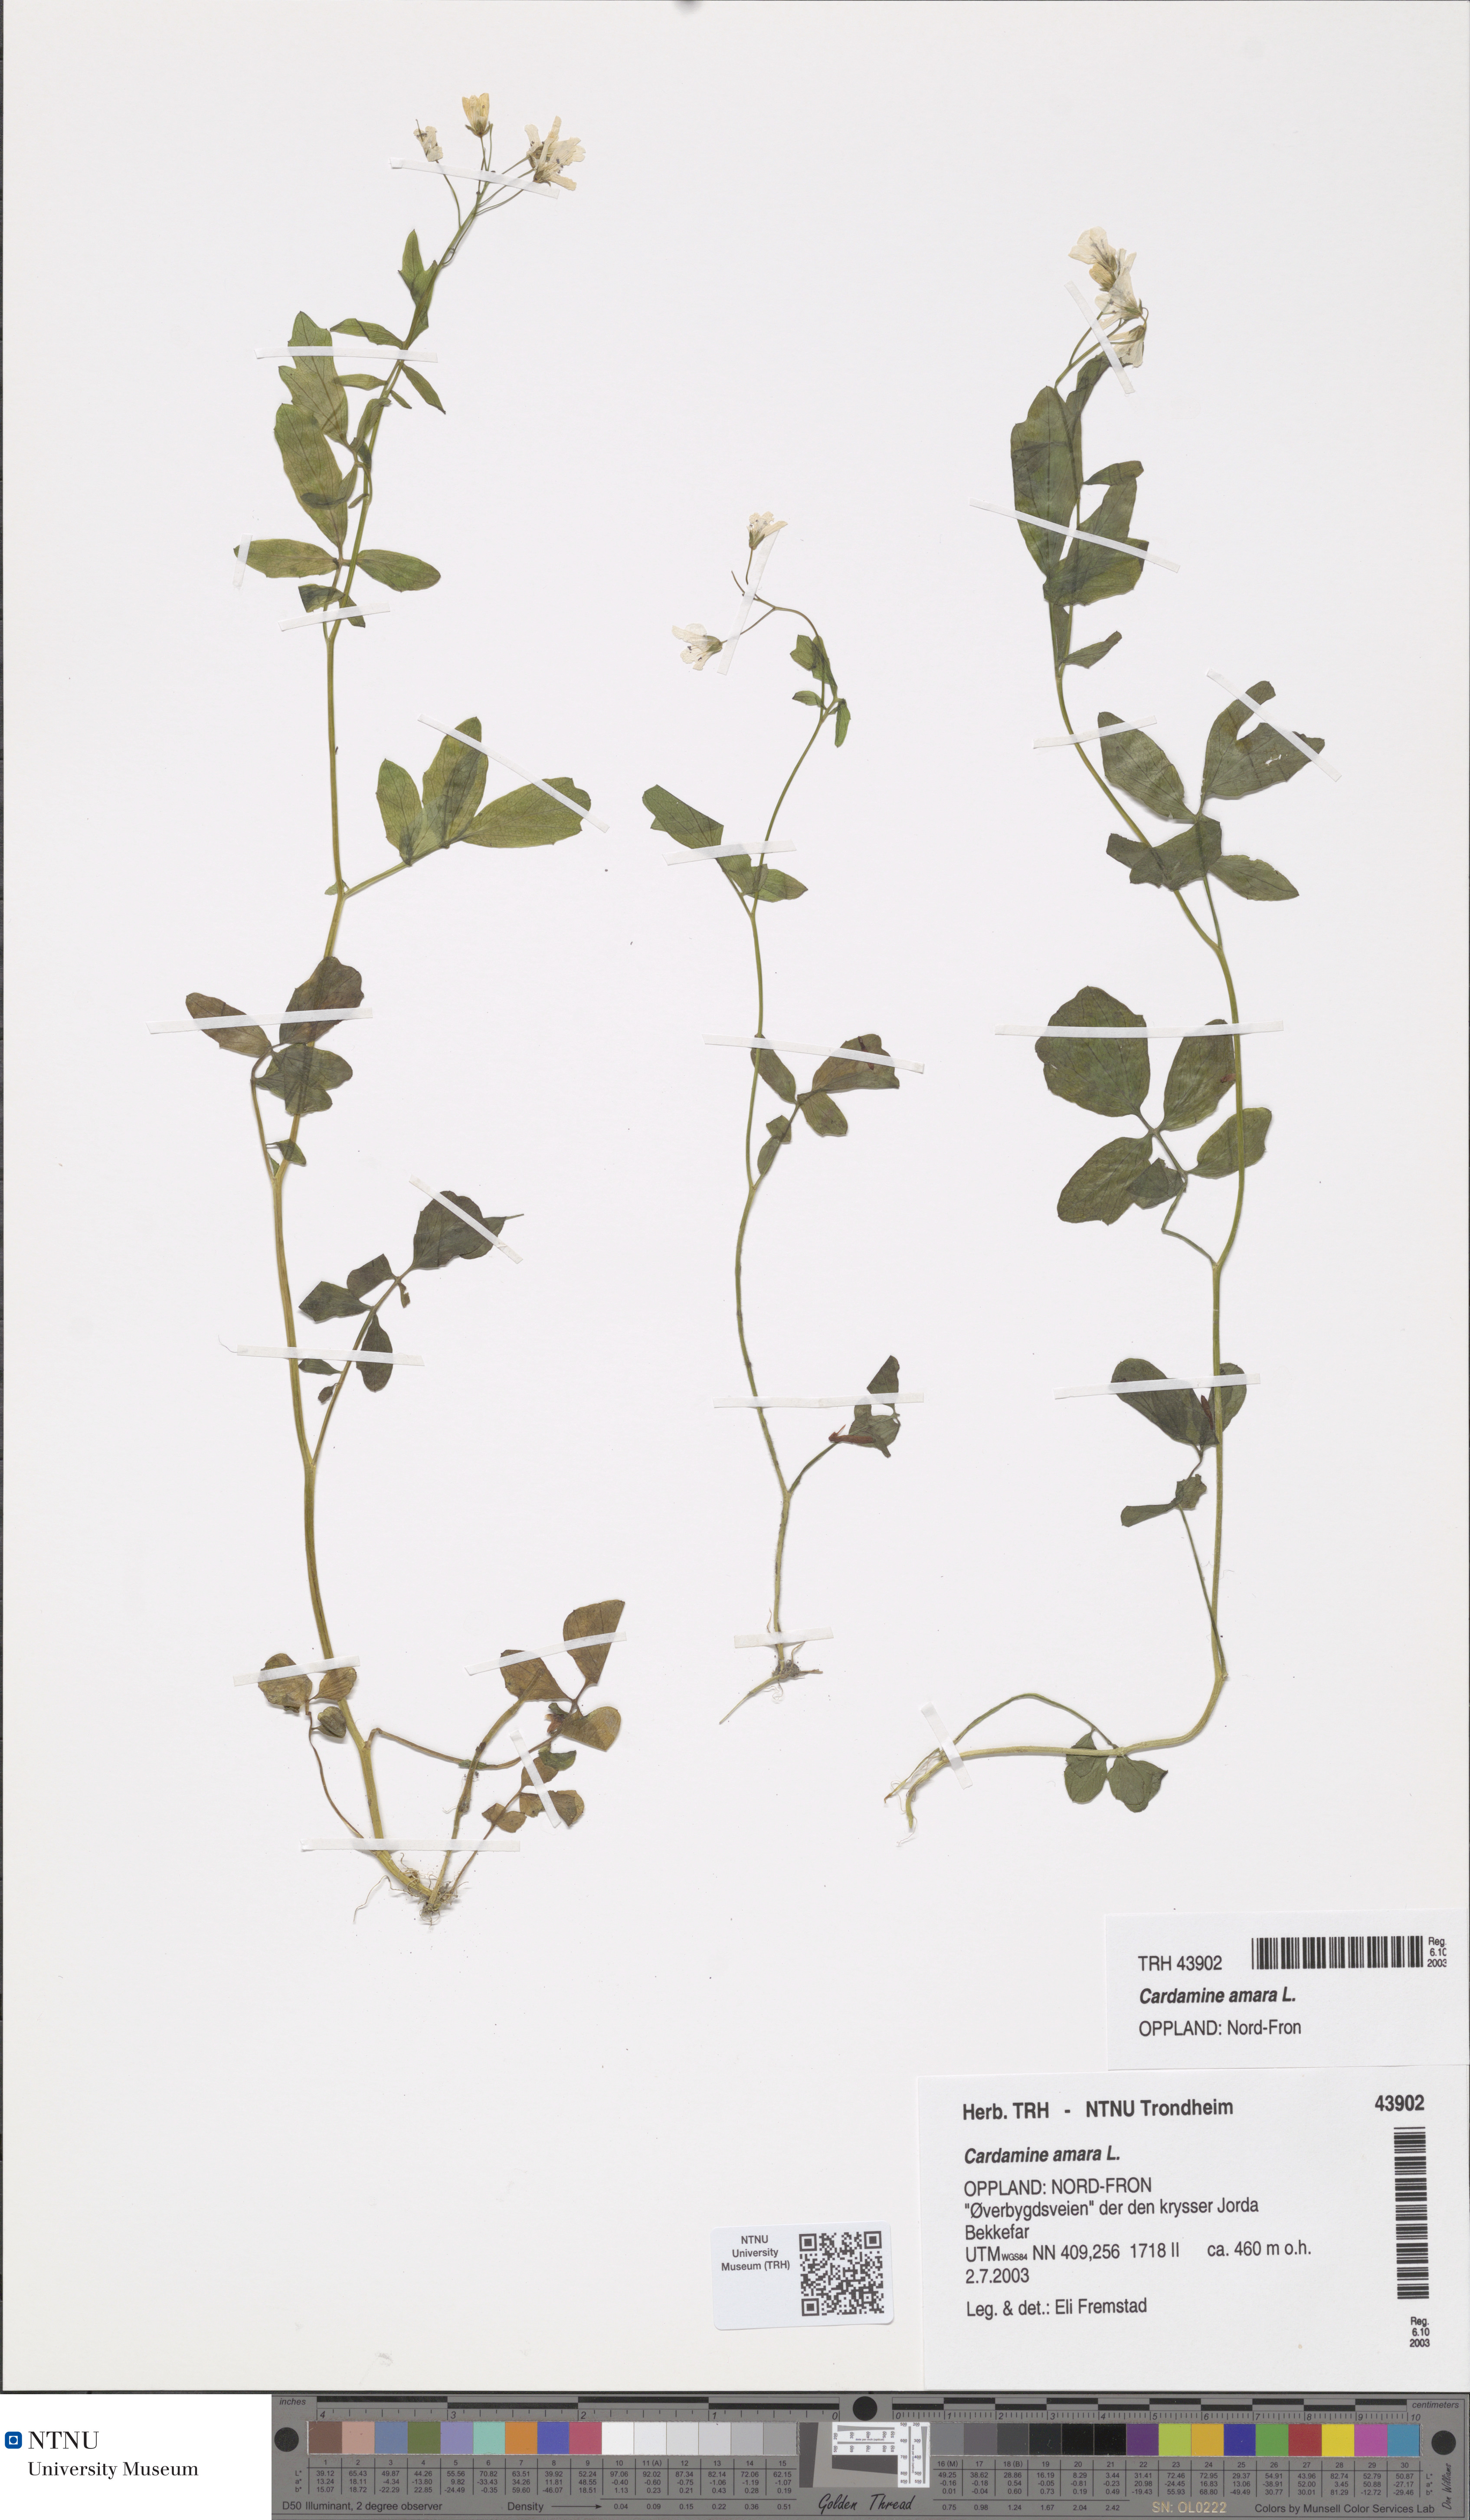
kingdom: Plantae
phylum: Tracheophyta
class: Magnoliopsida
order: Brassicales
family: Brassicaceae
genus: Cardamine
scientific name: Cardamine amara
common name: Large bitter-cress
